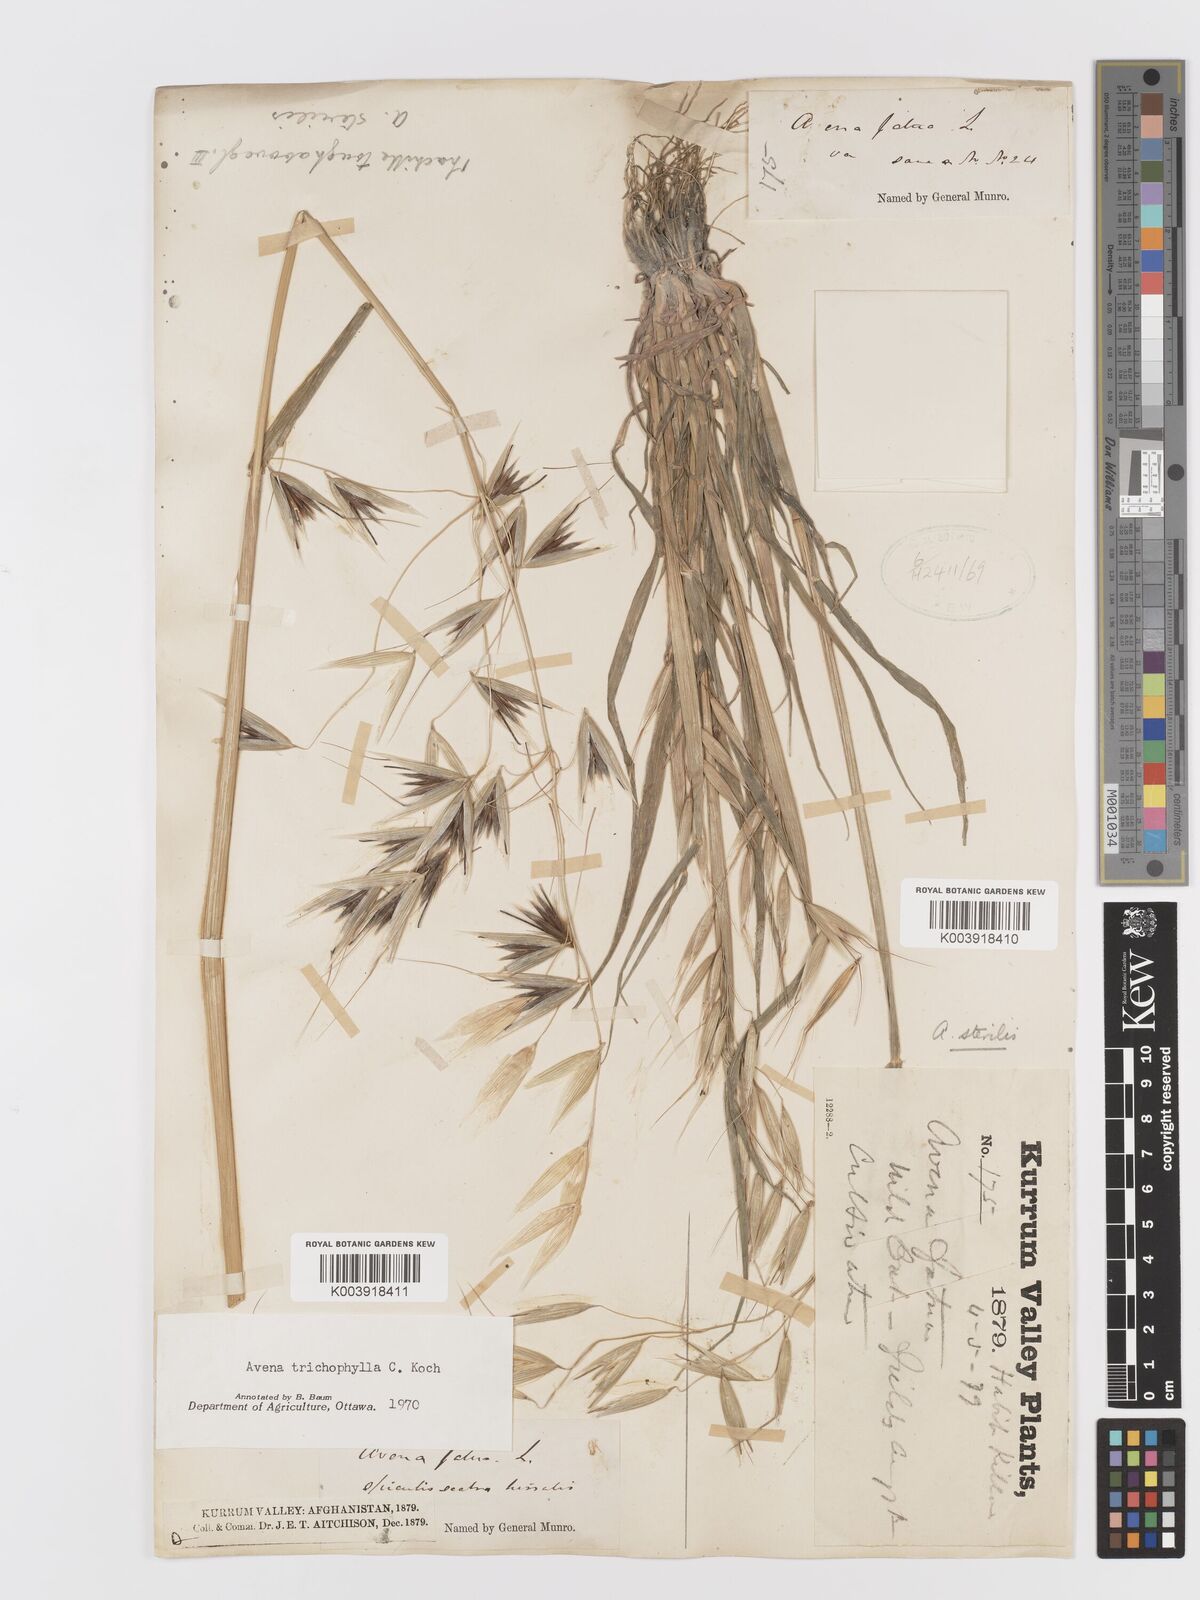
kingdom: Plantae
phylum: Tracheophyta
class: Liliopsida
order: Poales
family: Poaceae
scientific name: Poaceae
